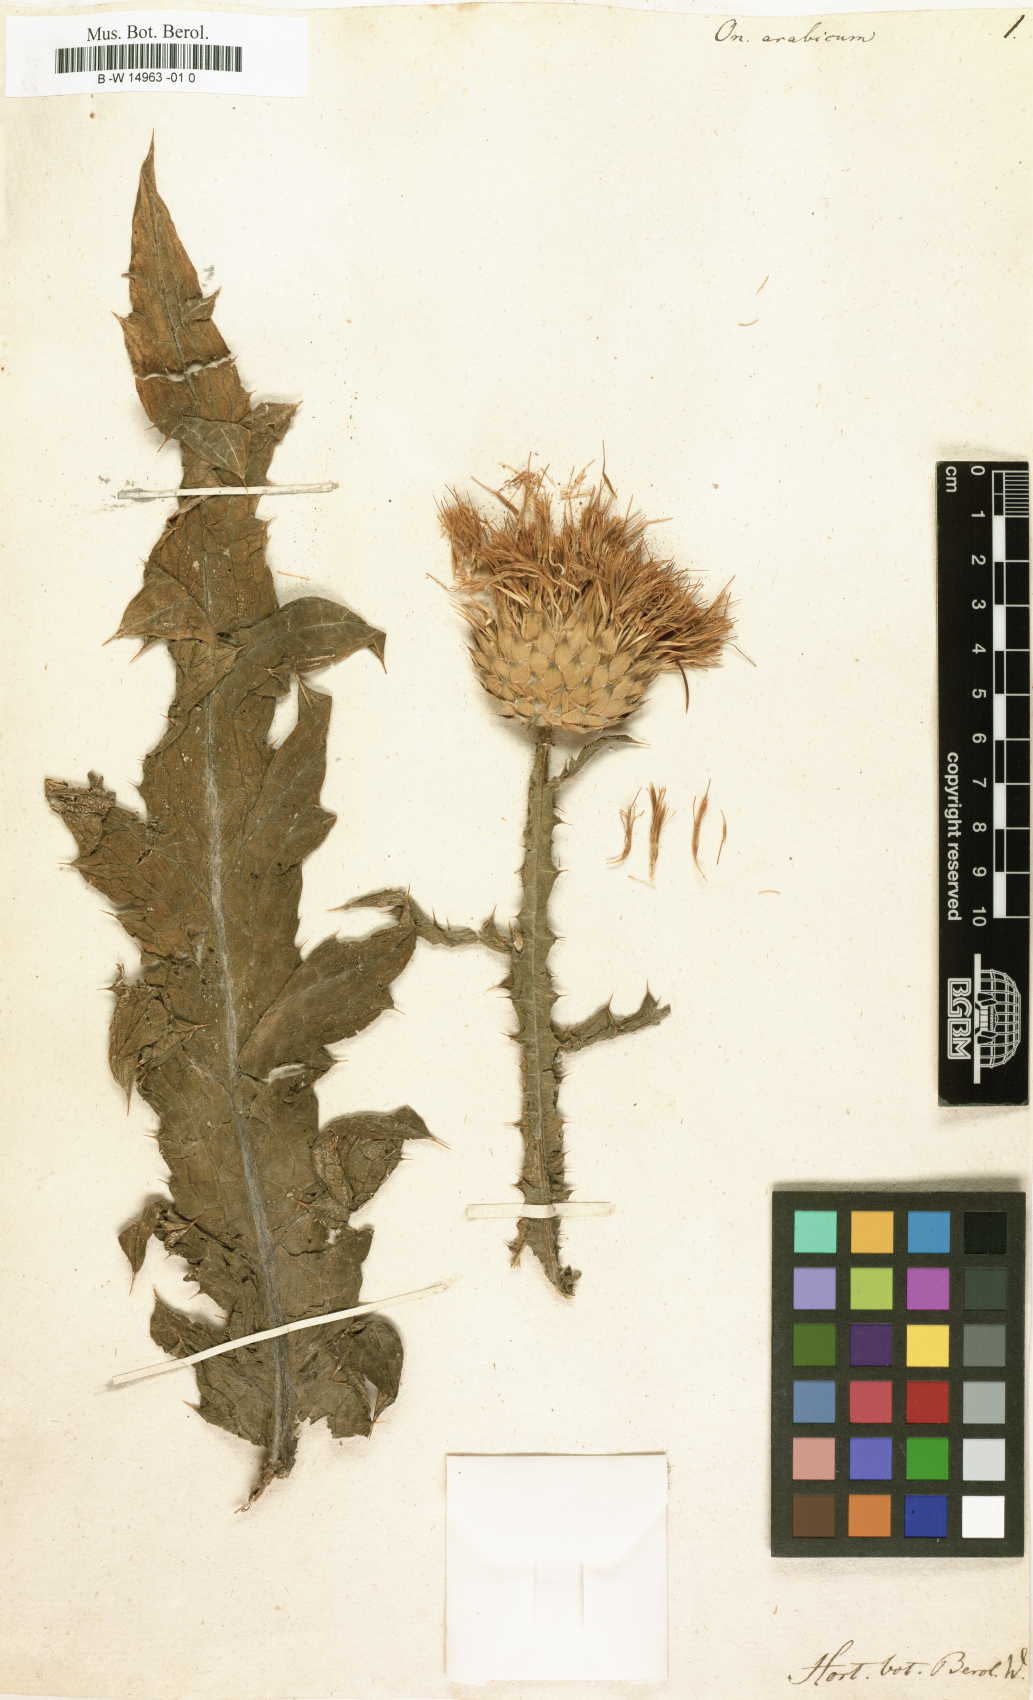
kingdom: Plantae
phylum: Tracheophyta
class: Magnoliopsida
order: Asterales
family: Asteraceae
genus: Onopordum
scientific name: Onopordum arabicum
